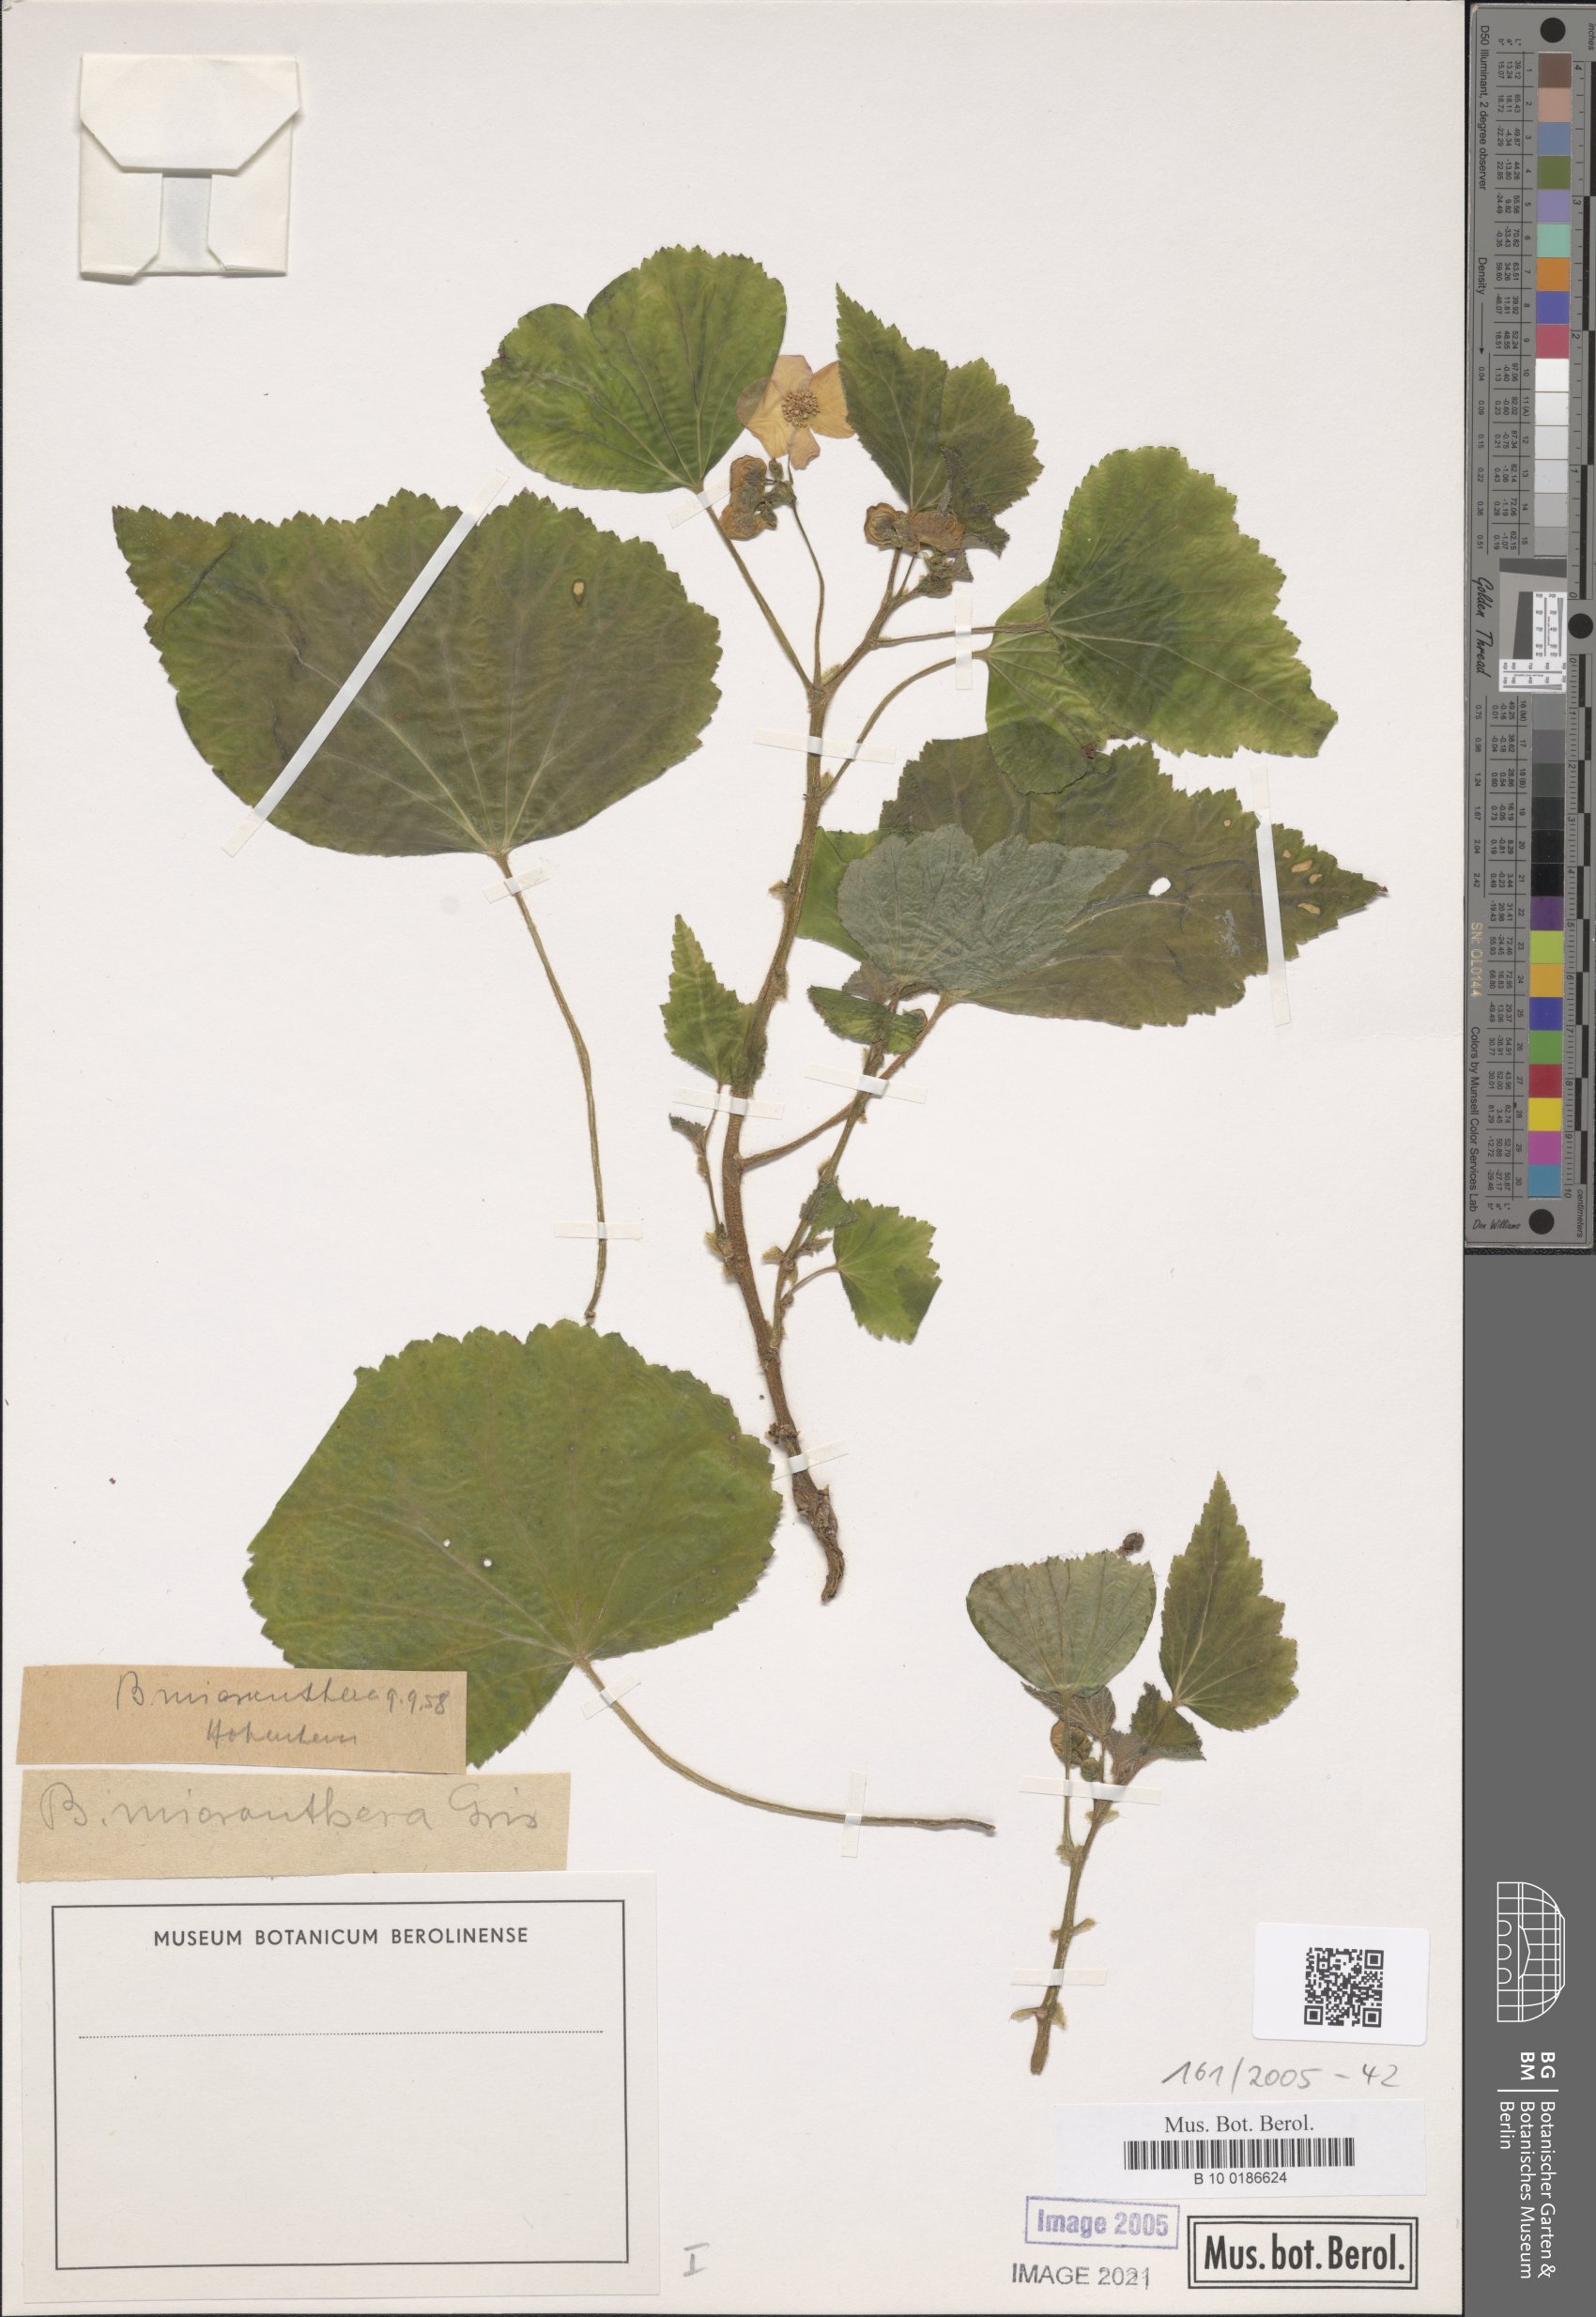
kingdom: Plantae
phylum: Tracheophyta
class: Magnoliopsida
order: Cucurbitales
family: Begoniaceae
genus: Begonia
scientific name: Begonia micranthera
